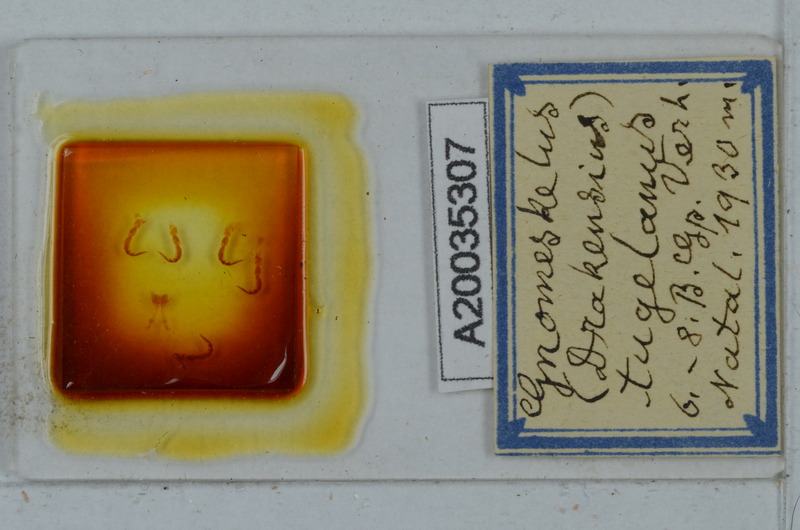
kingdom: Animalia
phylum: Arthropoda
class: Diplopoda
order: Polydesmida
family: Dalodesmidae
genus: Gnomeskelus
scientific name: Gnomeskelus tugelanus
